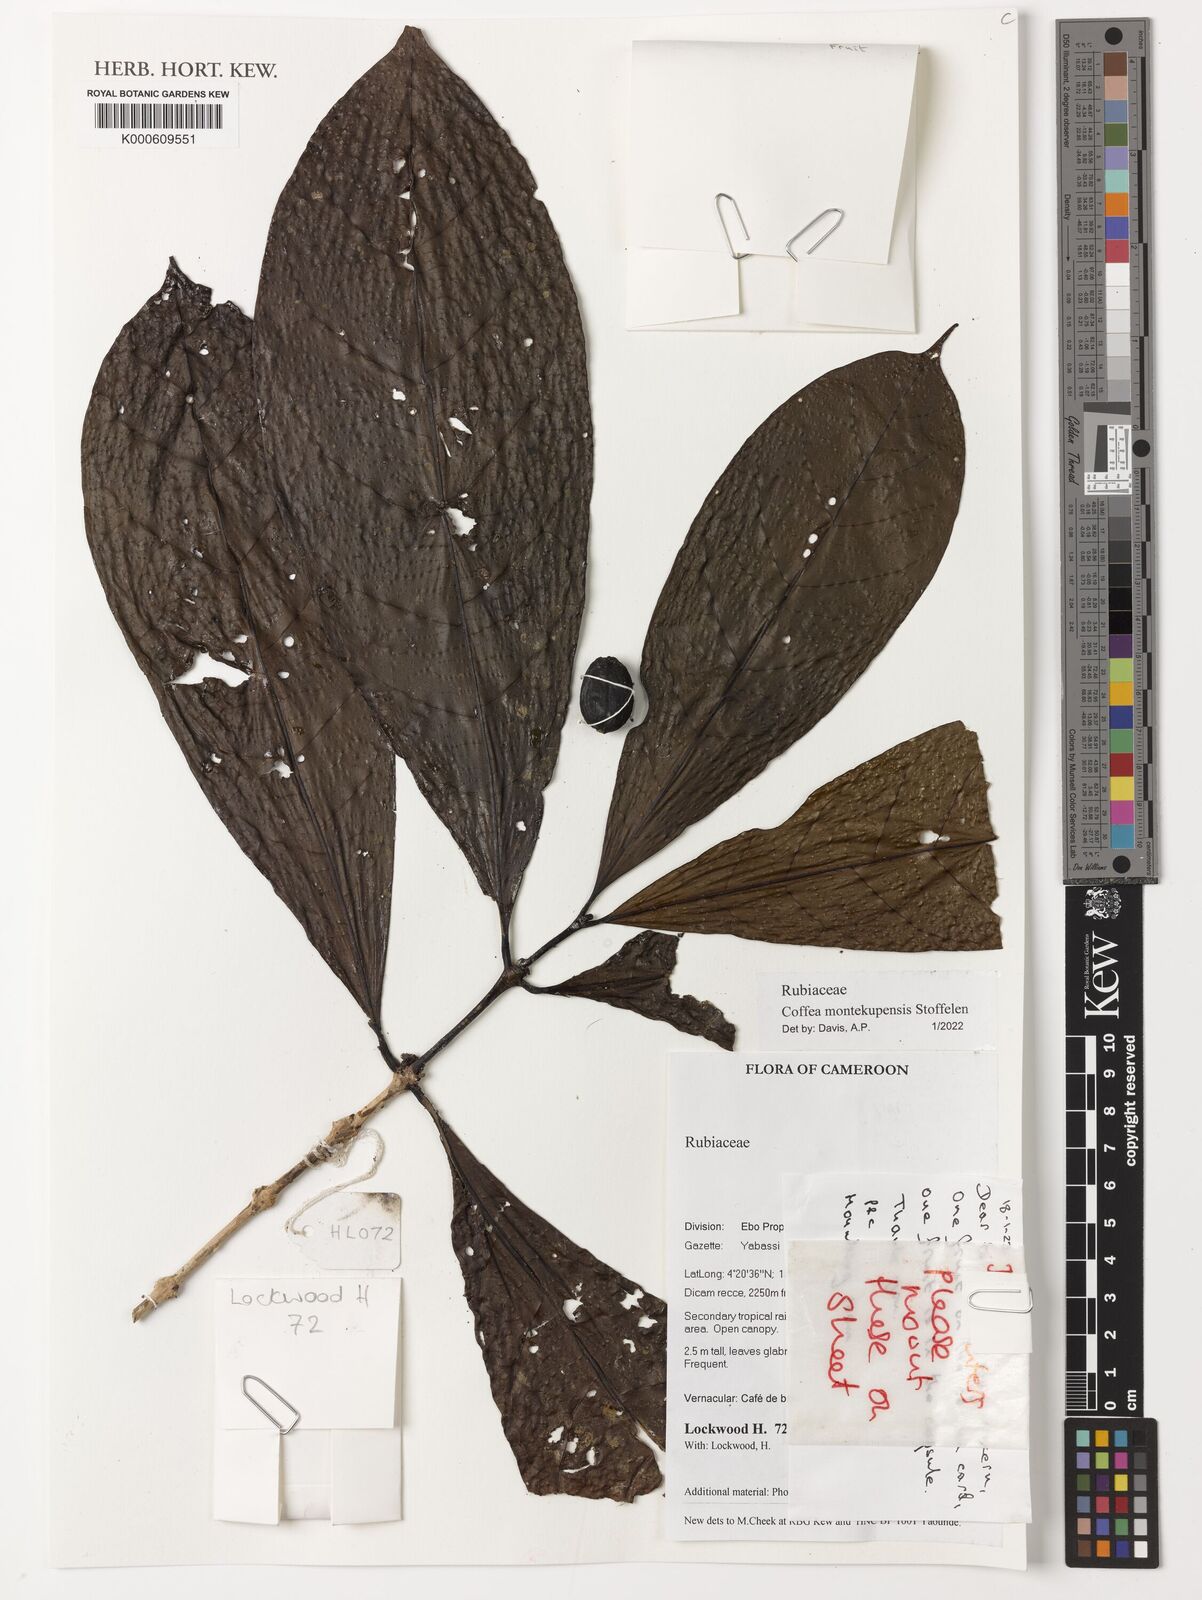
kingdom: Plantae
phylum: Tracheophyta
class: Magnoliopsida
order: Gentianales
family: Rubiaceae
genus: Coffea
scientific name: Coffea montekupensis
